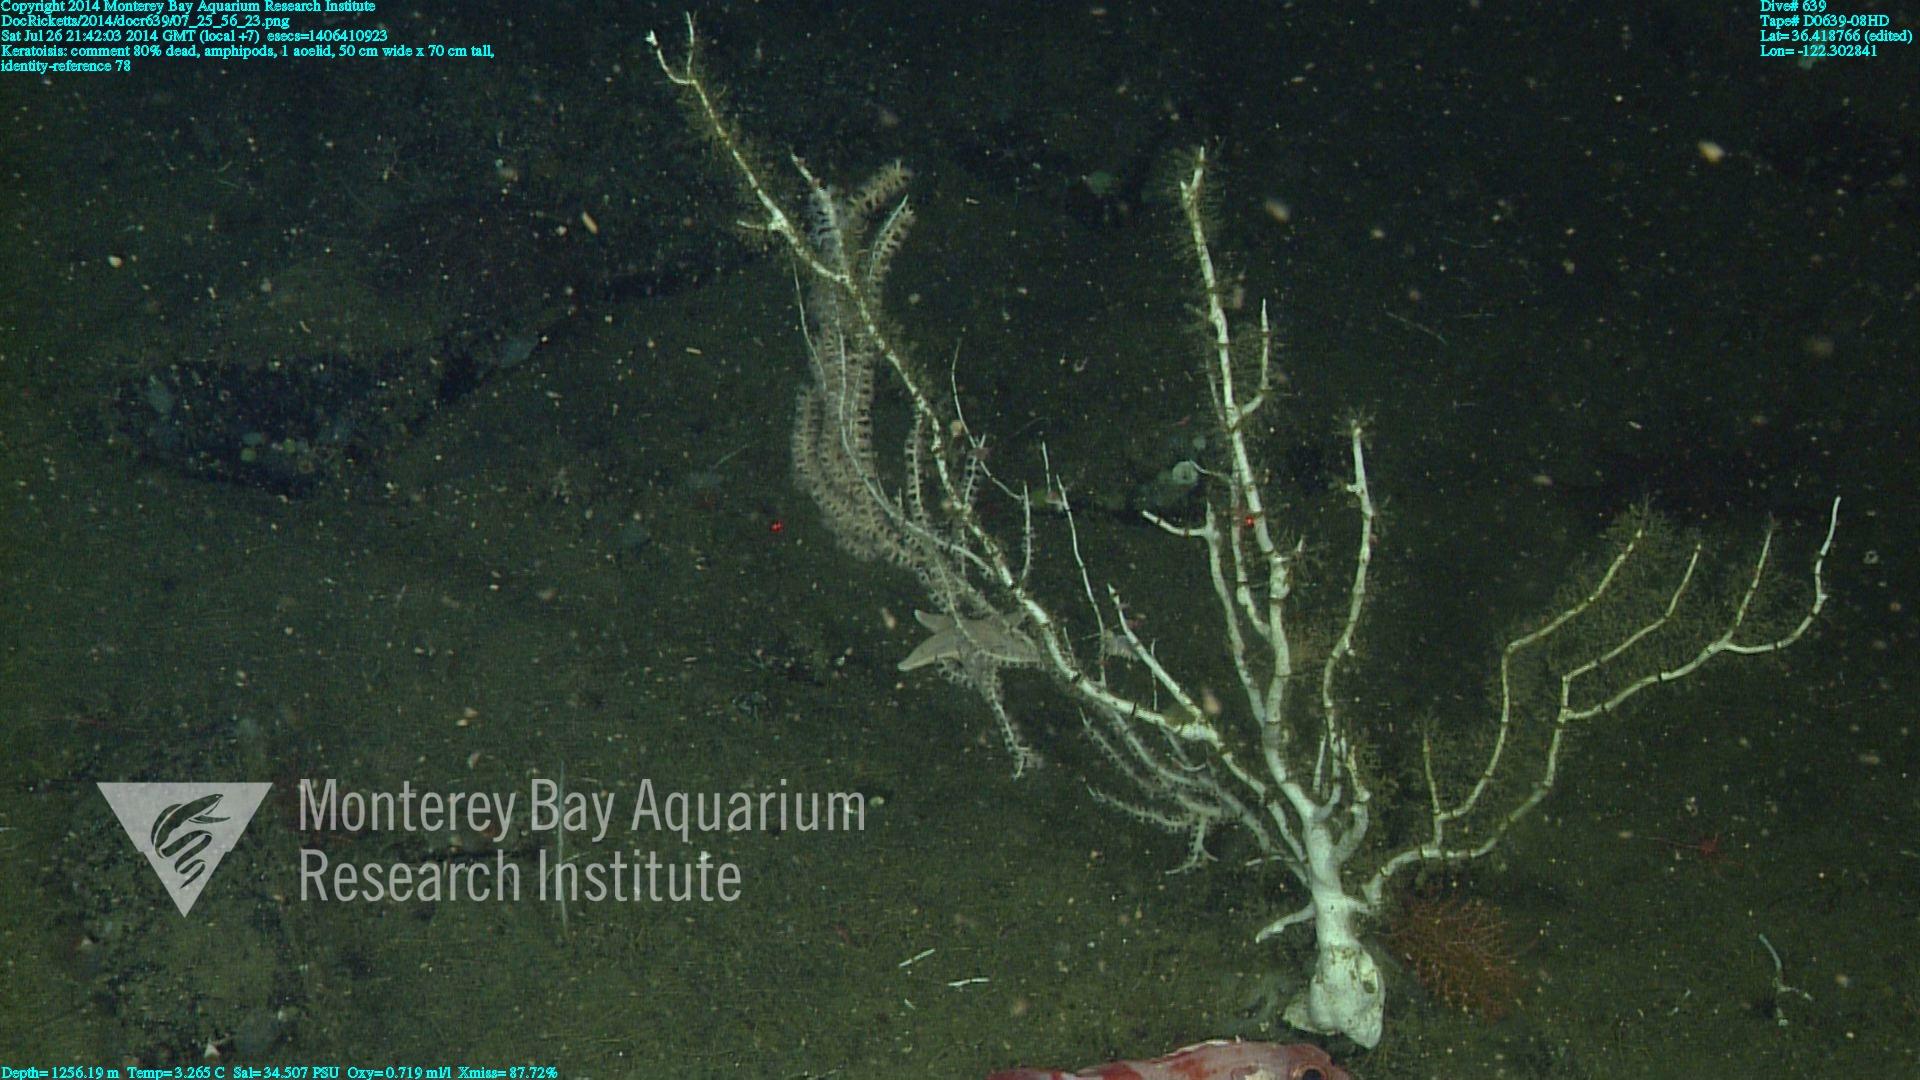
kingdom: Animalia
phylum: Cnidaria
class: Anthozoa
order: Scleralcyonacea
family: Keratoisididae
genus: Keratoisis
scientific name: Keratoisis
